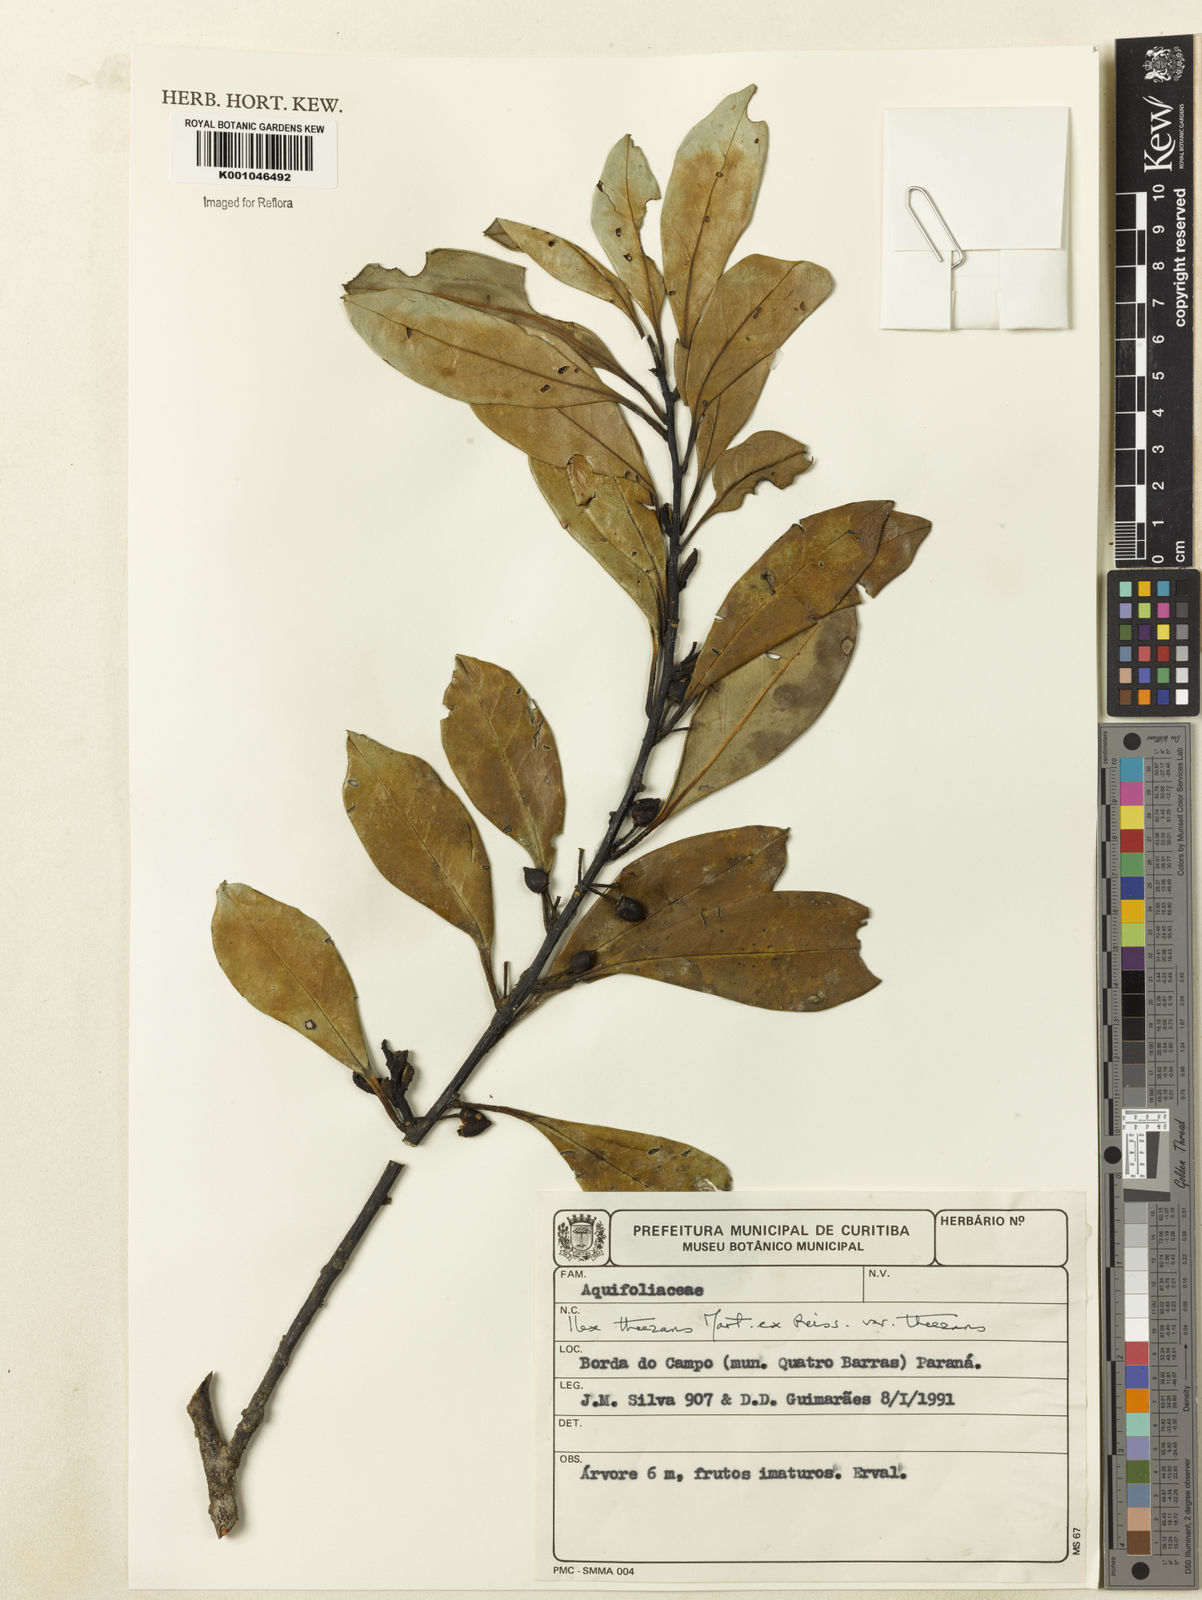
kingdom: Plantae
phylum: Tracheophyta
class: Magnoliopsida
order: Aquifoliales
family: Aquifoliaceae
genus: Ilex
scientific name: Ilex paraguariensis
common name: Paraguay tea
